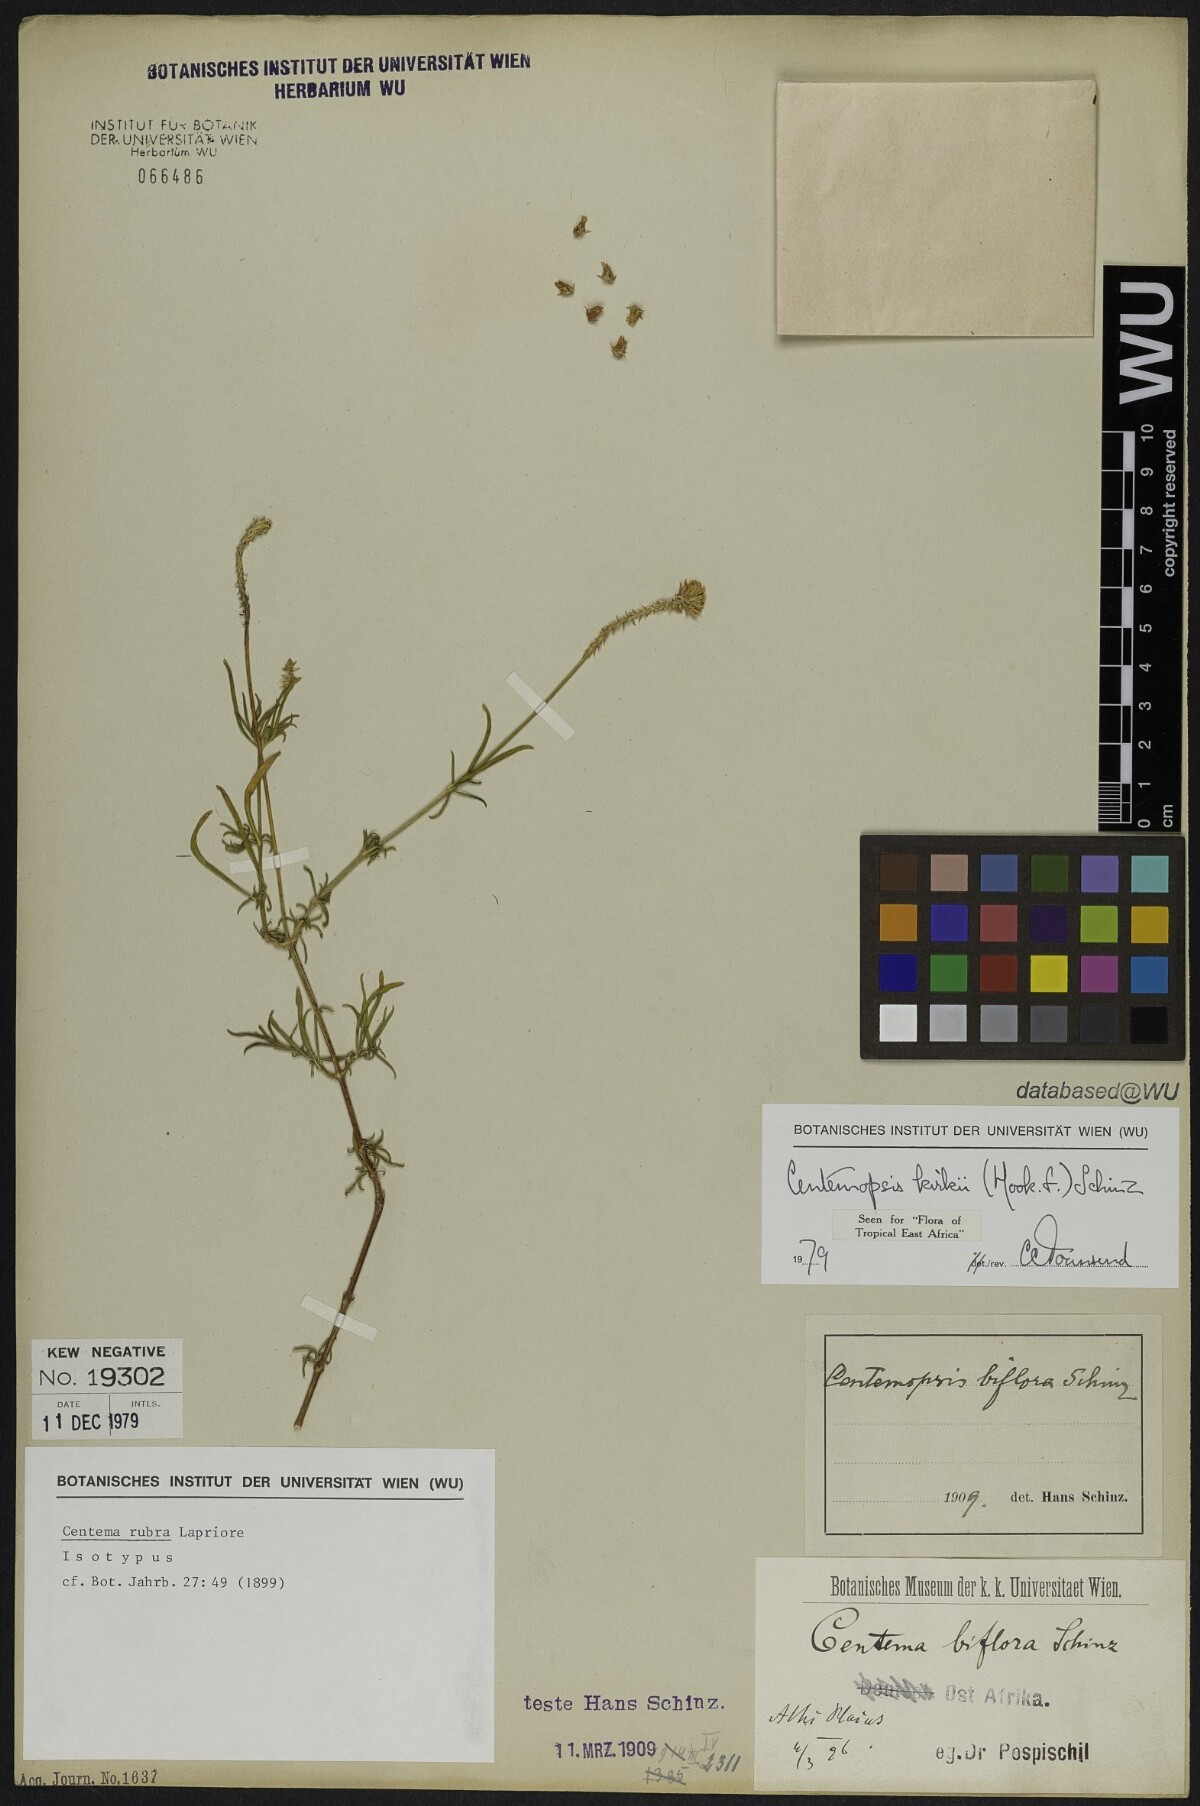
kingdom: Plantae
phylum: Tracheophyta
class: Magnoliopsida
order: Caryophyllales
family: Amaranthaceae
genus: Centemopsis
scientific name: Centemopsis kirkii
